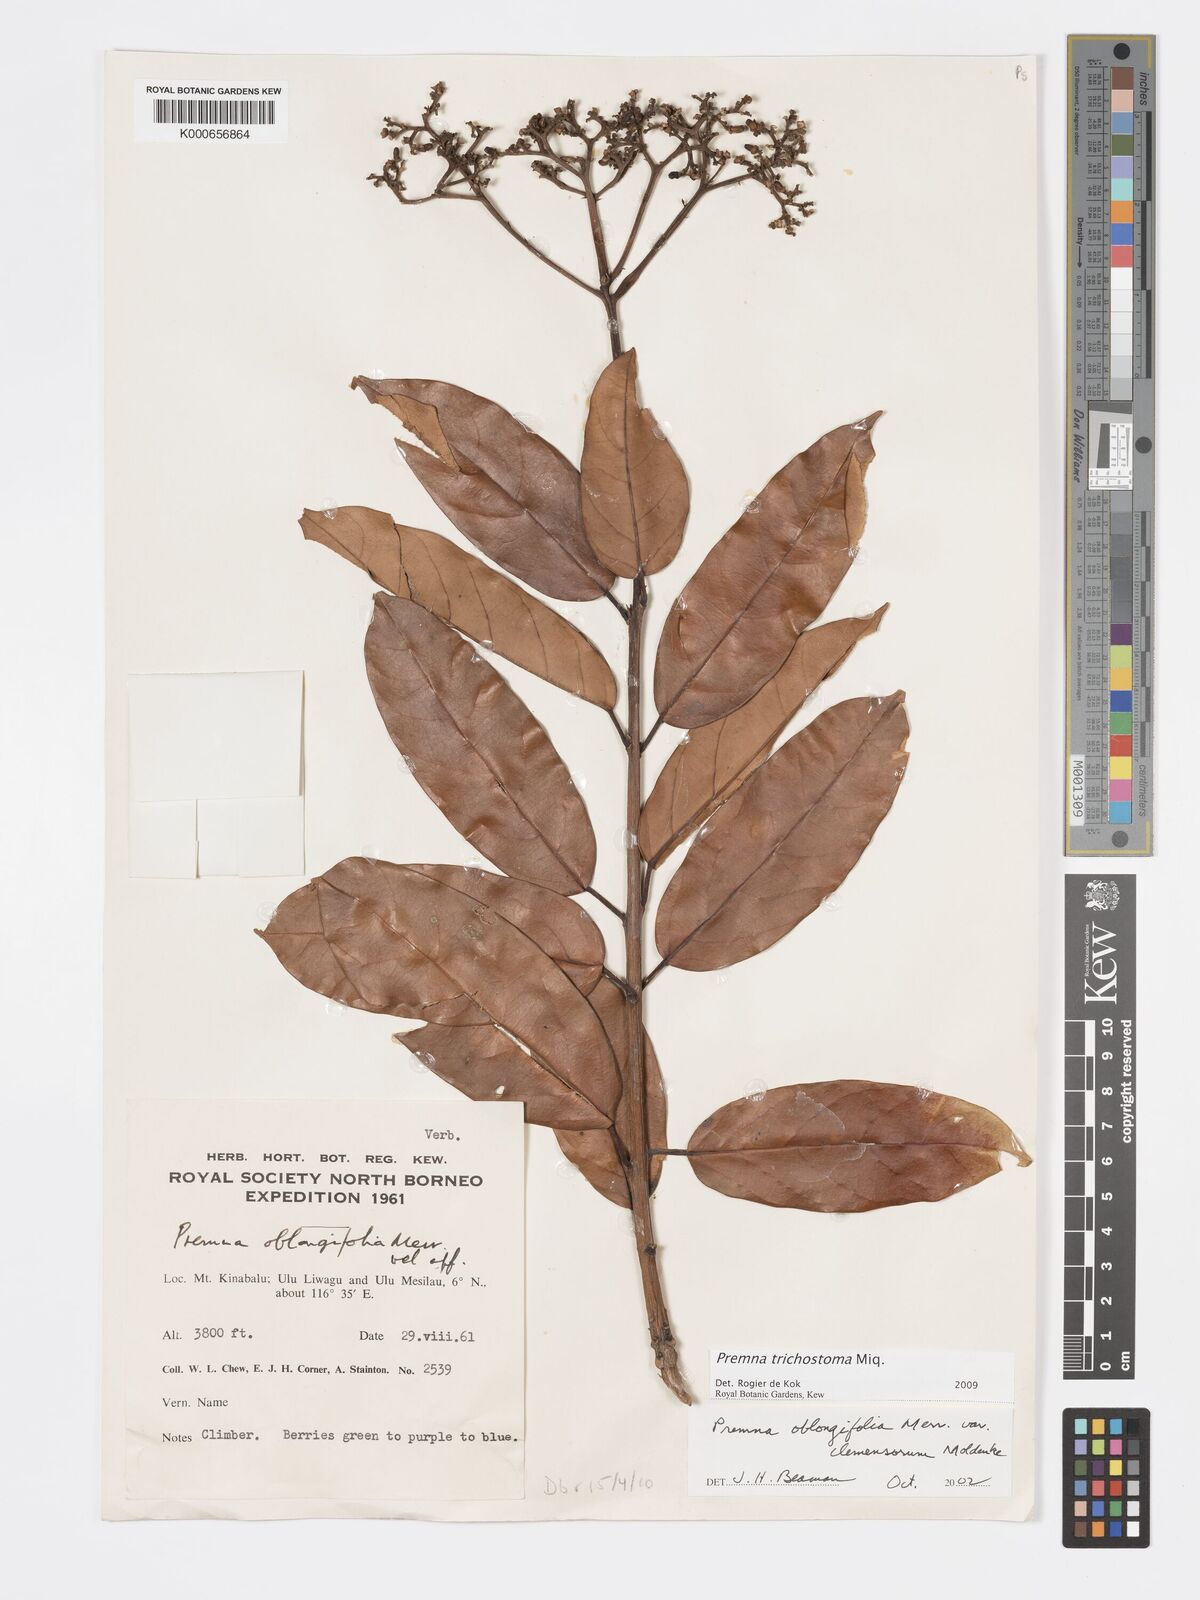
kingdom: Plantae
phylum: Tracheophyta
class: Magnoliopsida
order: Lamiales
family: Lamiaceae
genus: Premna
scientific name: Premna trichostoma
